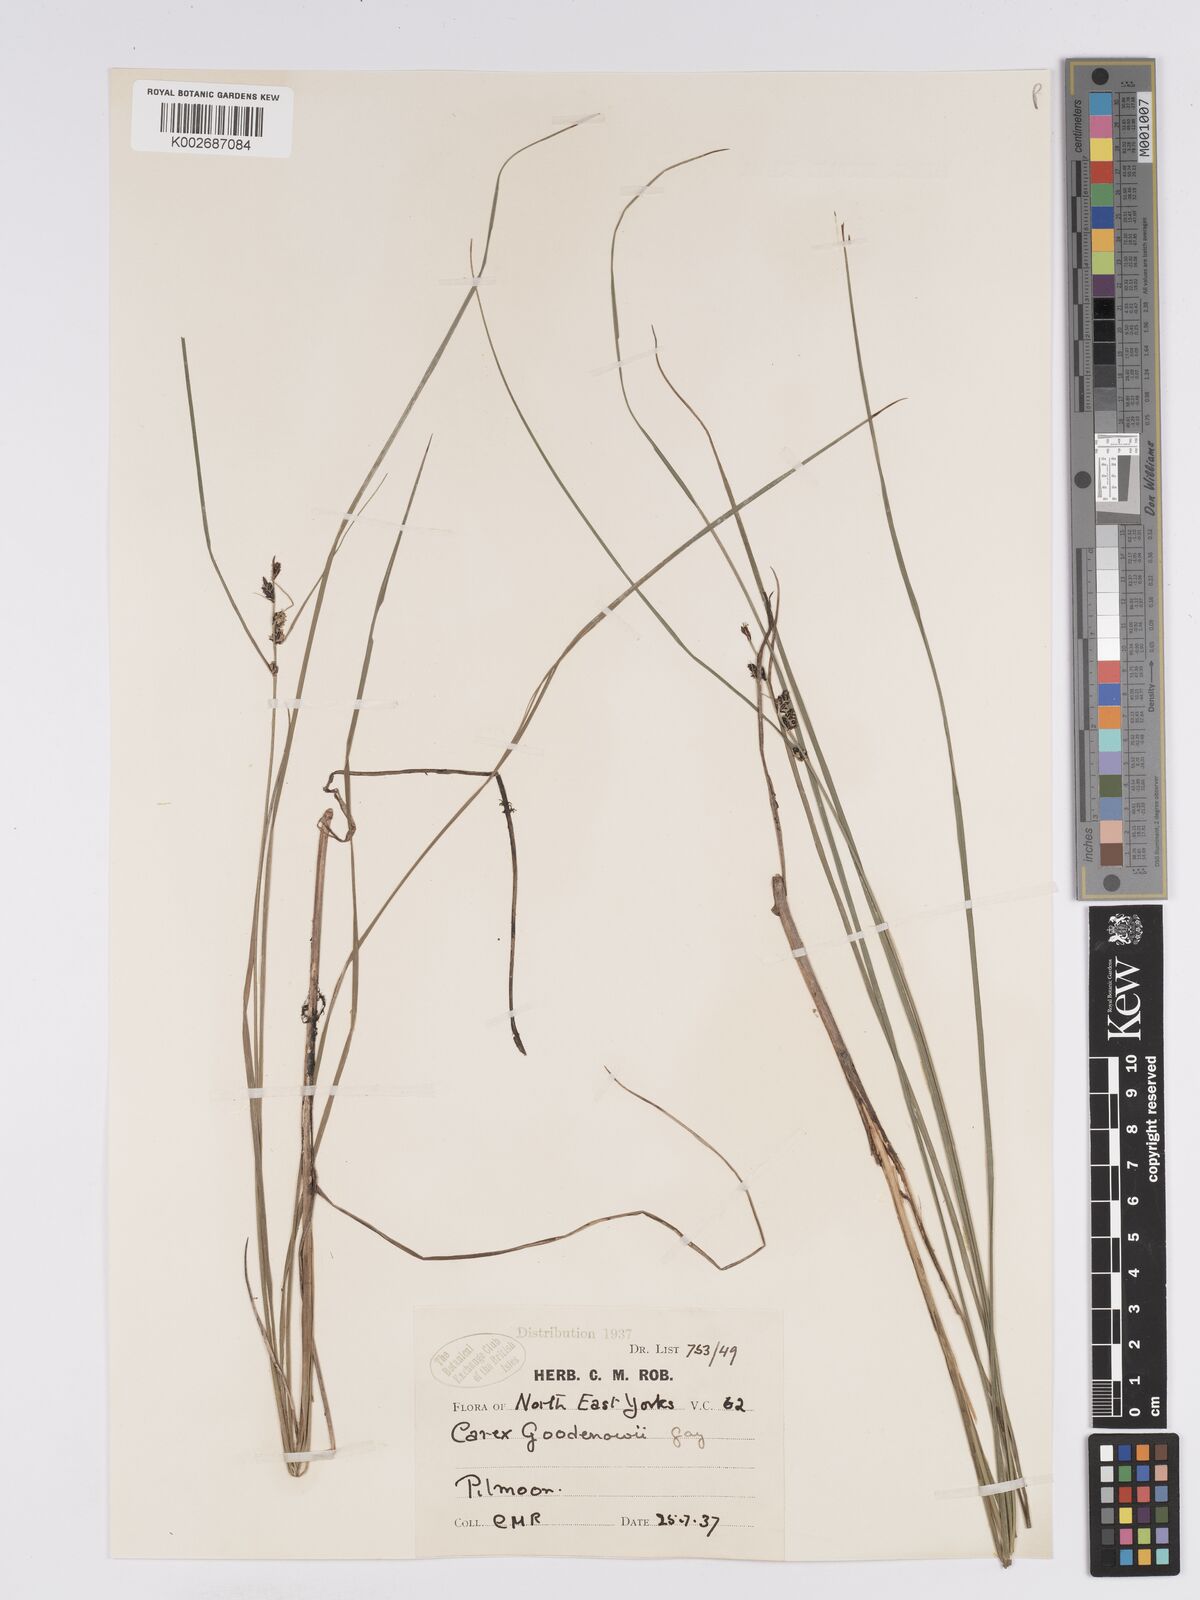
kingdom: Plantae
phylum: Tracheophyta
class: Liliopsida
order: Poales
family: Cyperaceae
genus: Carex
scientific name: Carex nigra
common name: Common sedge
